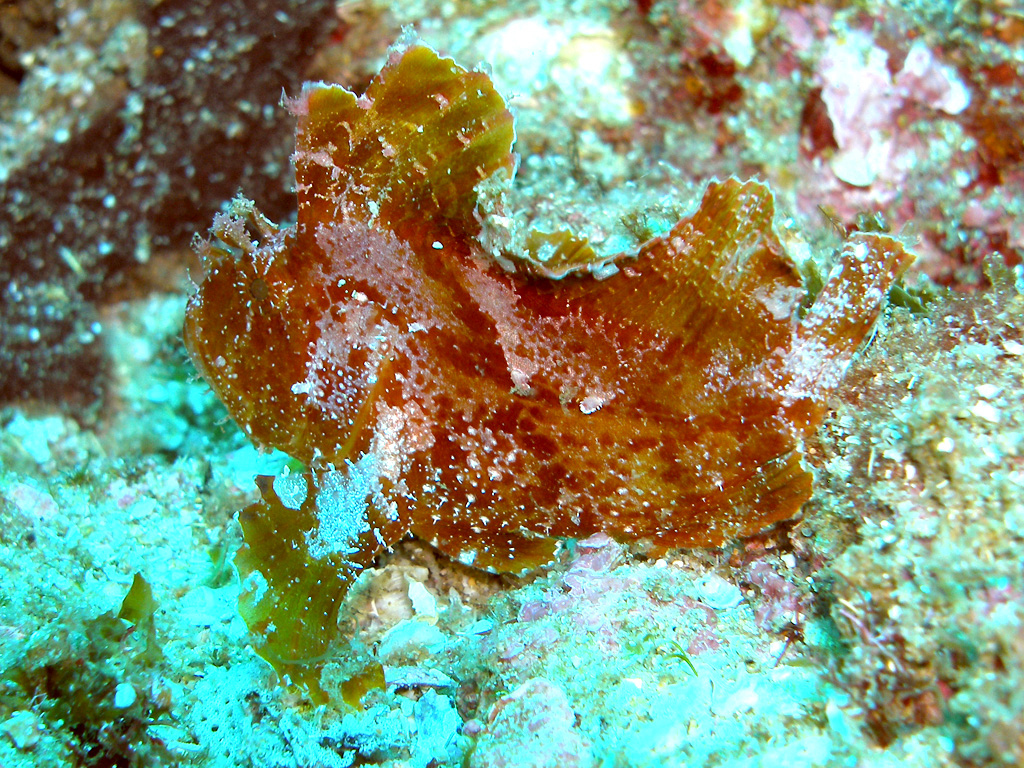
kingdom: Animalia
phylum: Chordata
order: Scorpaeniformes
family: Scorpaenidae
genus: Taenianotus
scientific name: Taenianotus triacanthus
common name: Leaf scorpionfish
